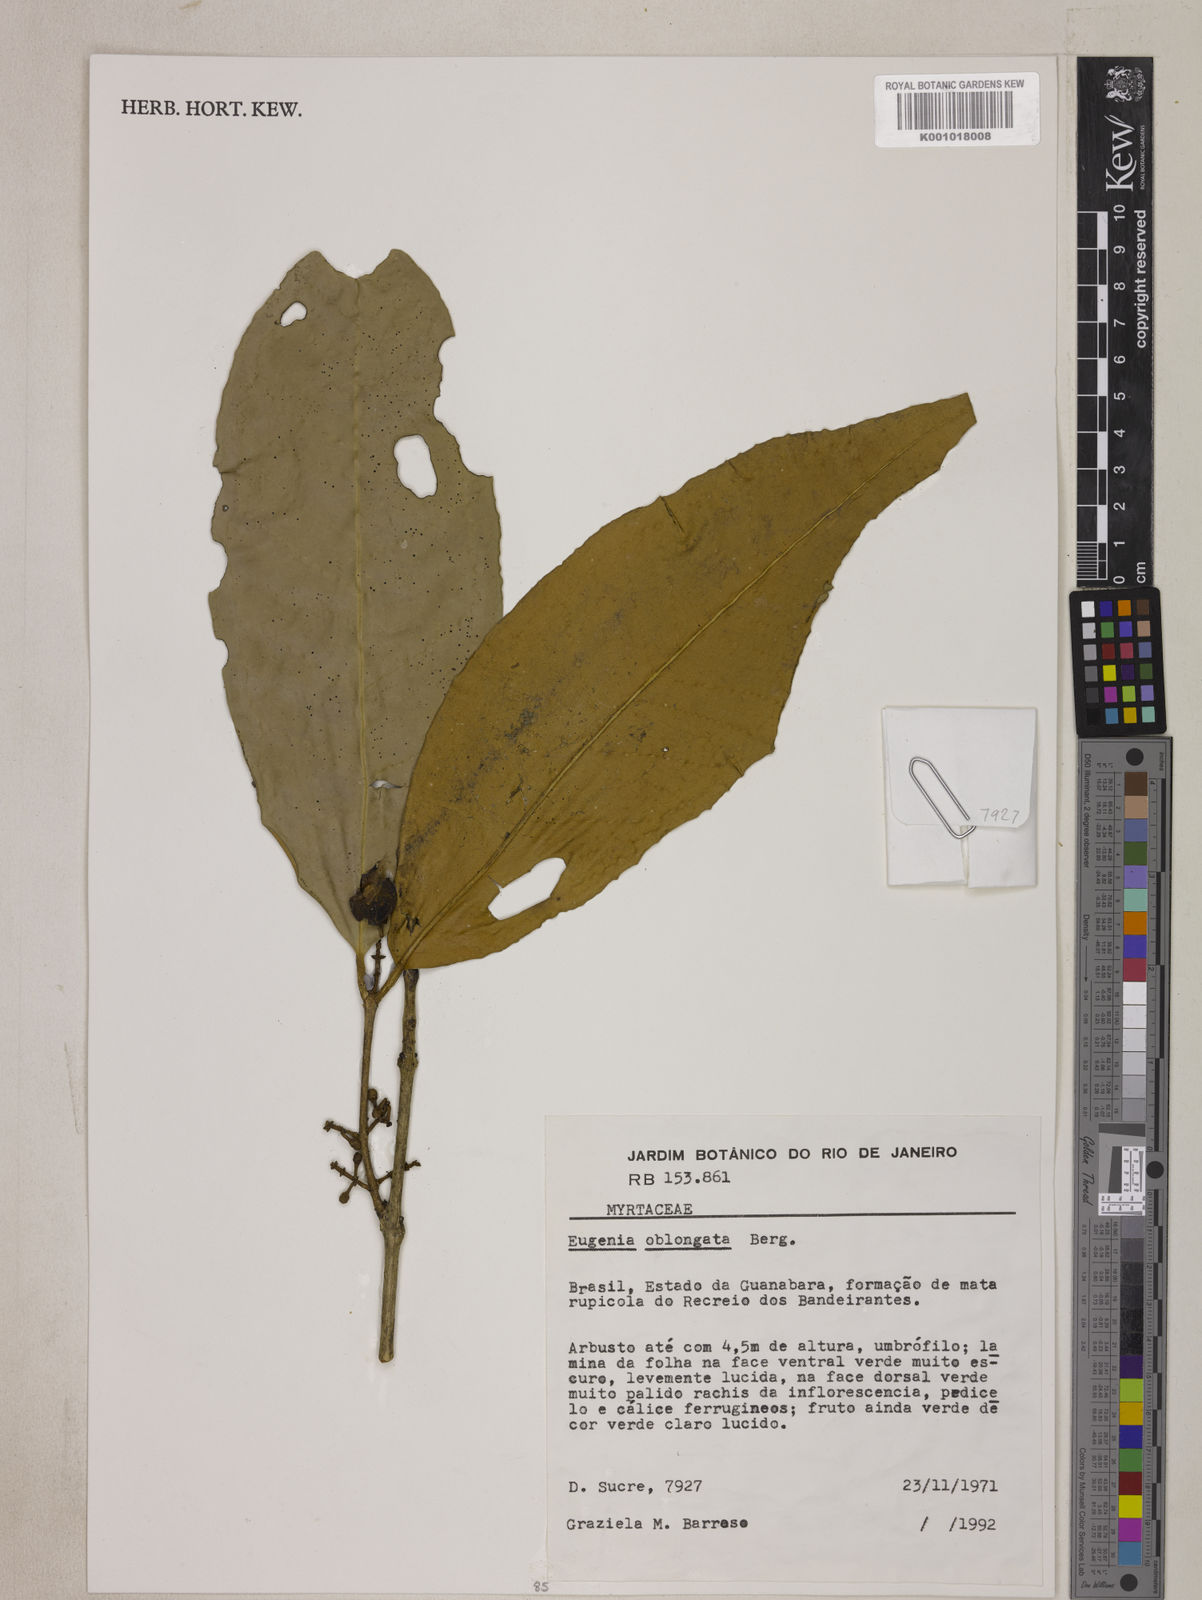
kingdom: Plantae
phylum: Tracheophyta
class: Magnoliopsida
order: Myrtales
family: Myrtaceae
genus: Eugenia
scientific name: Eugenia oblongata
